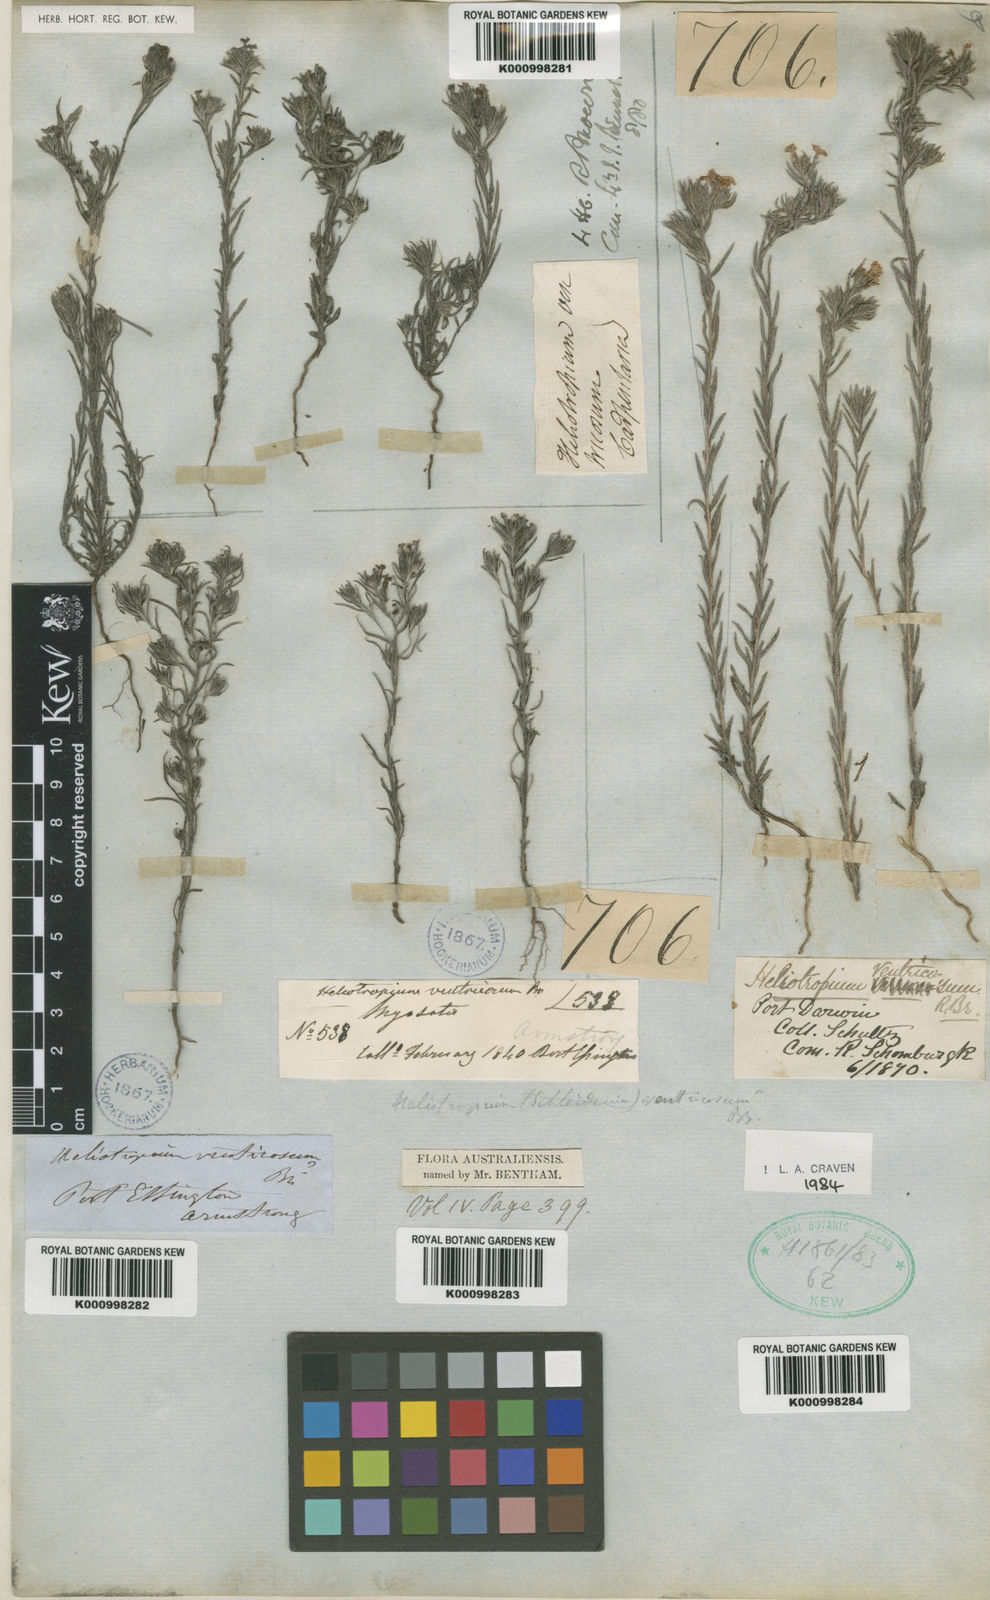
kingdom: Plantae
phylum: Tracheophyta
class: Magnoliopsida
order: Boraginales
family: Heliotropiaceae
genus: Euploca
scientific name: Euploca ventricosa
